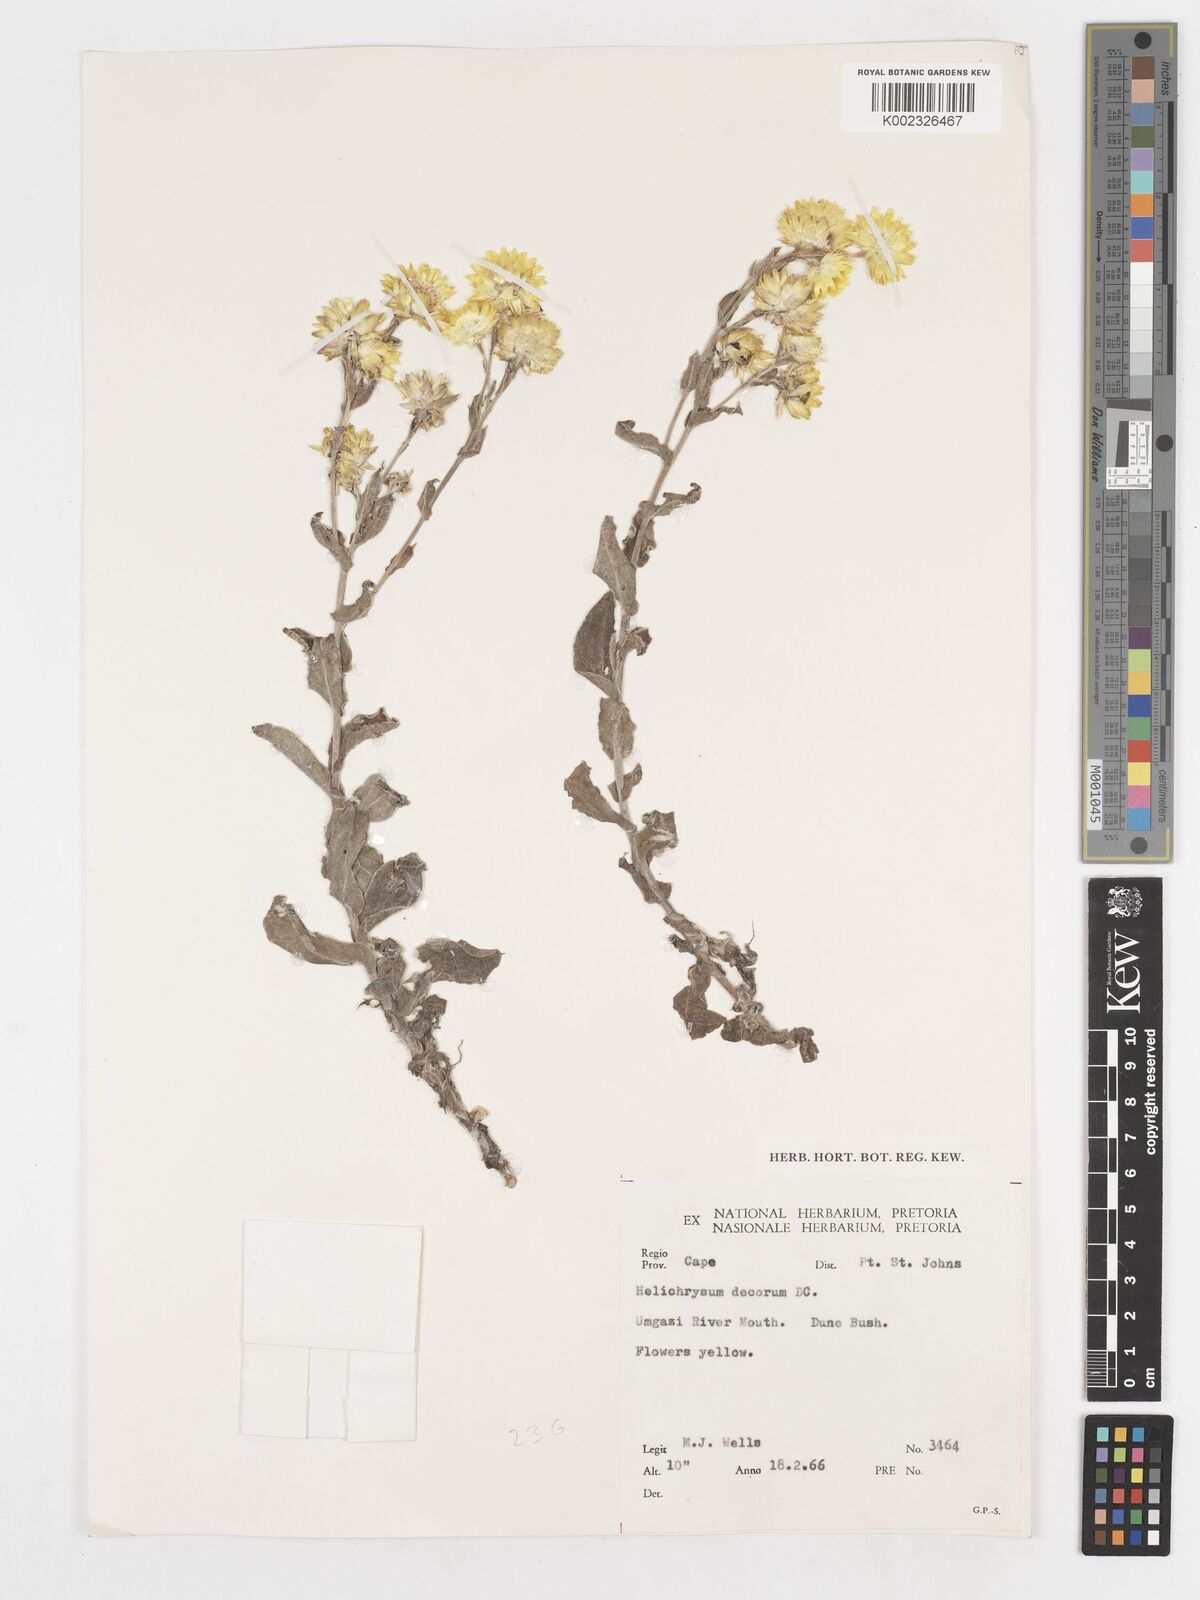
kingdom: Plantae
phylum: Tracheophyta
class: Magnoliopsida
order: Asterales
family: Asteraceae
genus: Helichrysum
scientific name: Helichrysum decorum
